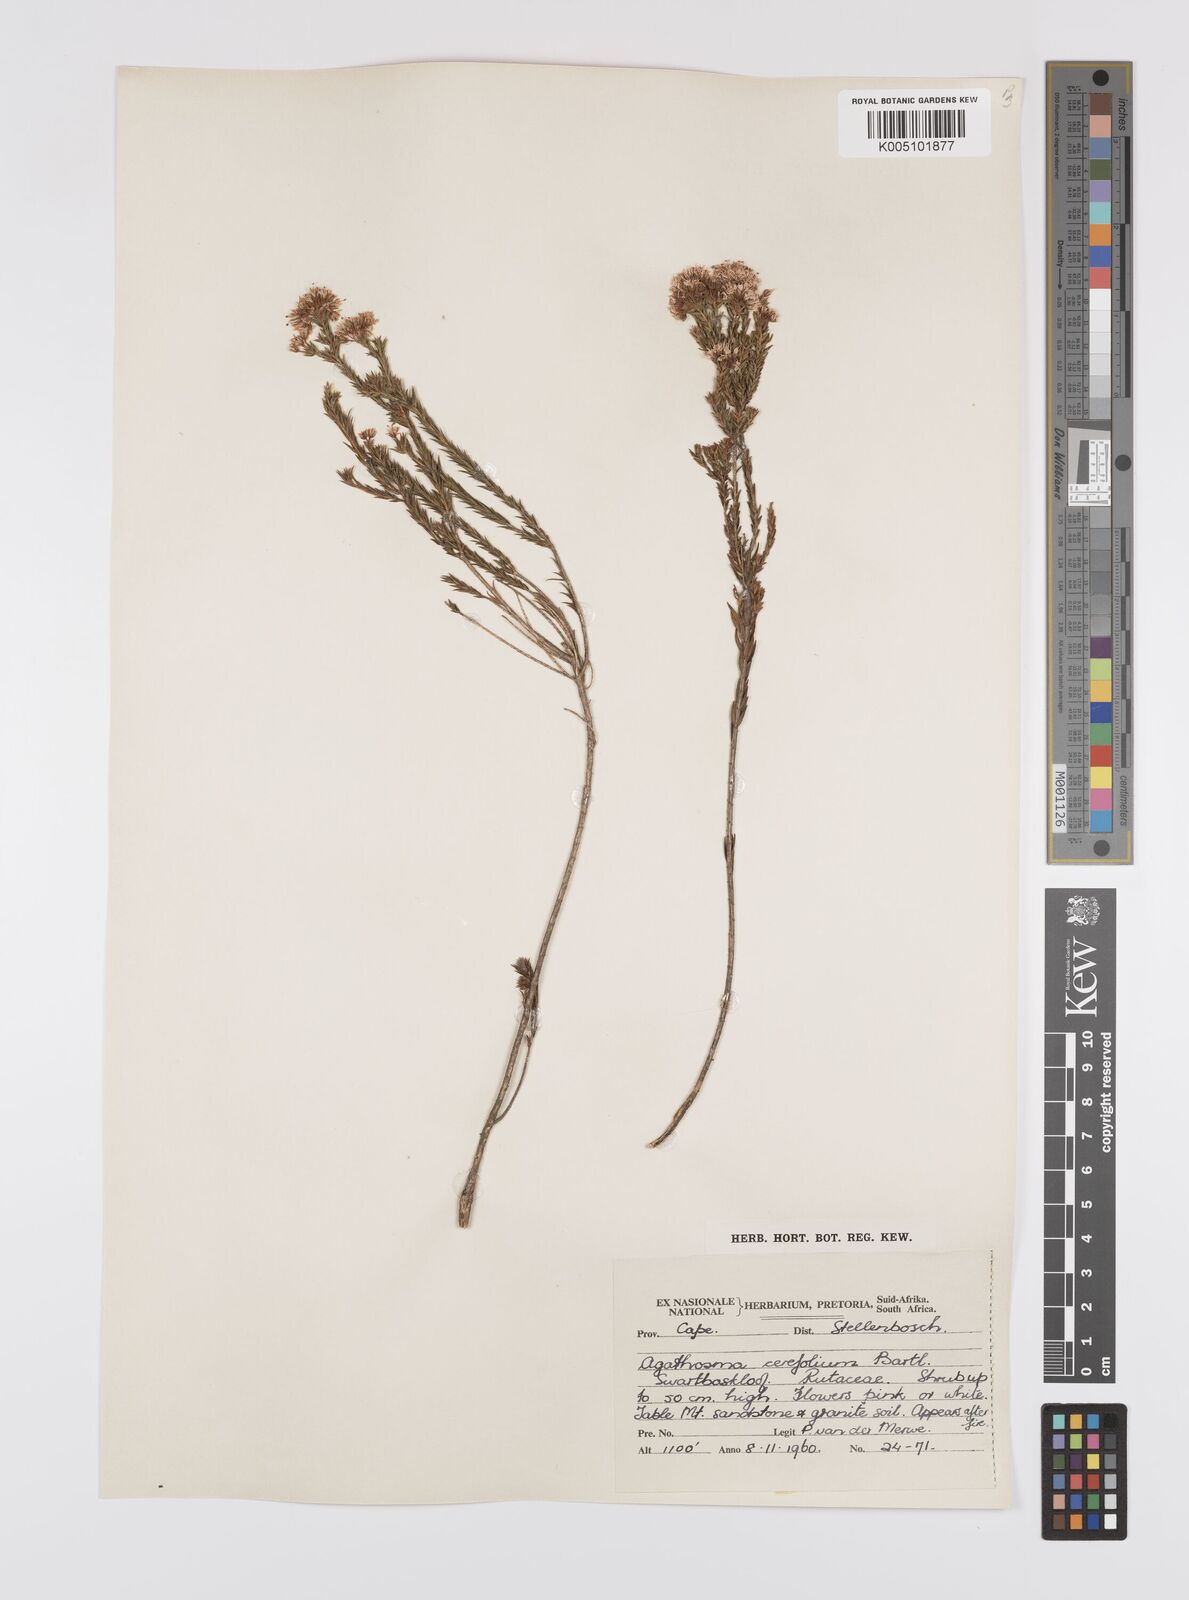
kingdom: Plantae
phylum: Tracheophyta
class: Magnoliopsida
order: Sapindales
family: Rutaceae
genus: Agathosma
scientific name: Agathosma cerefolia
